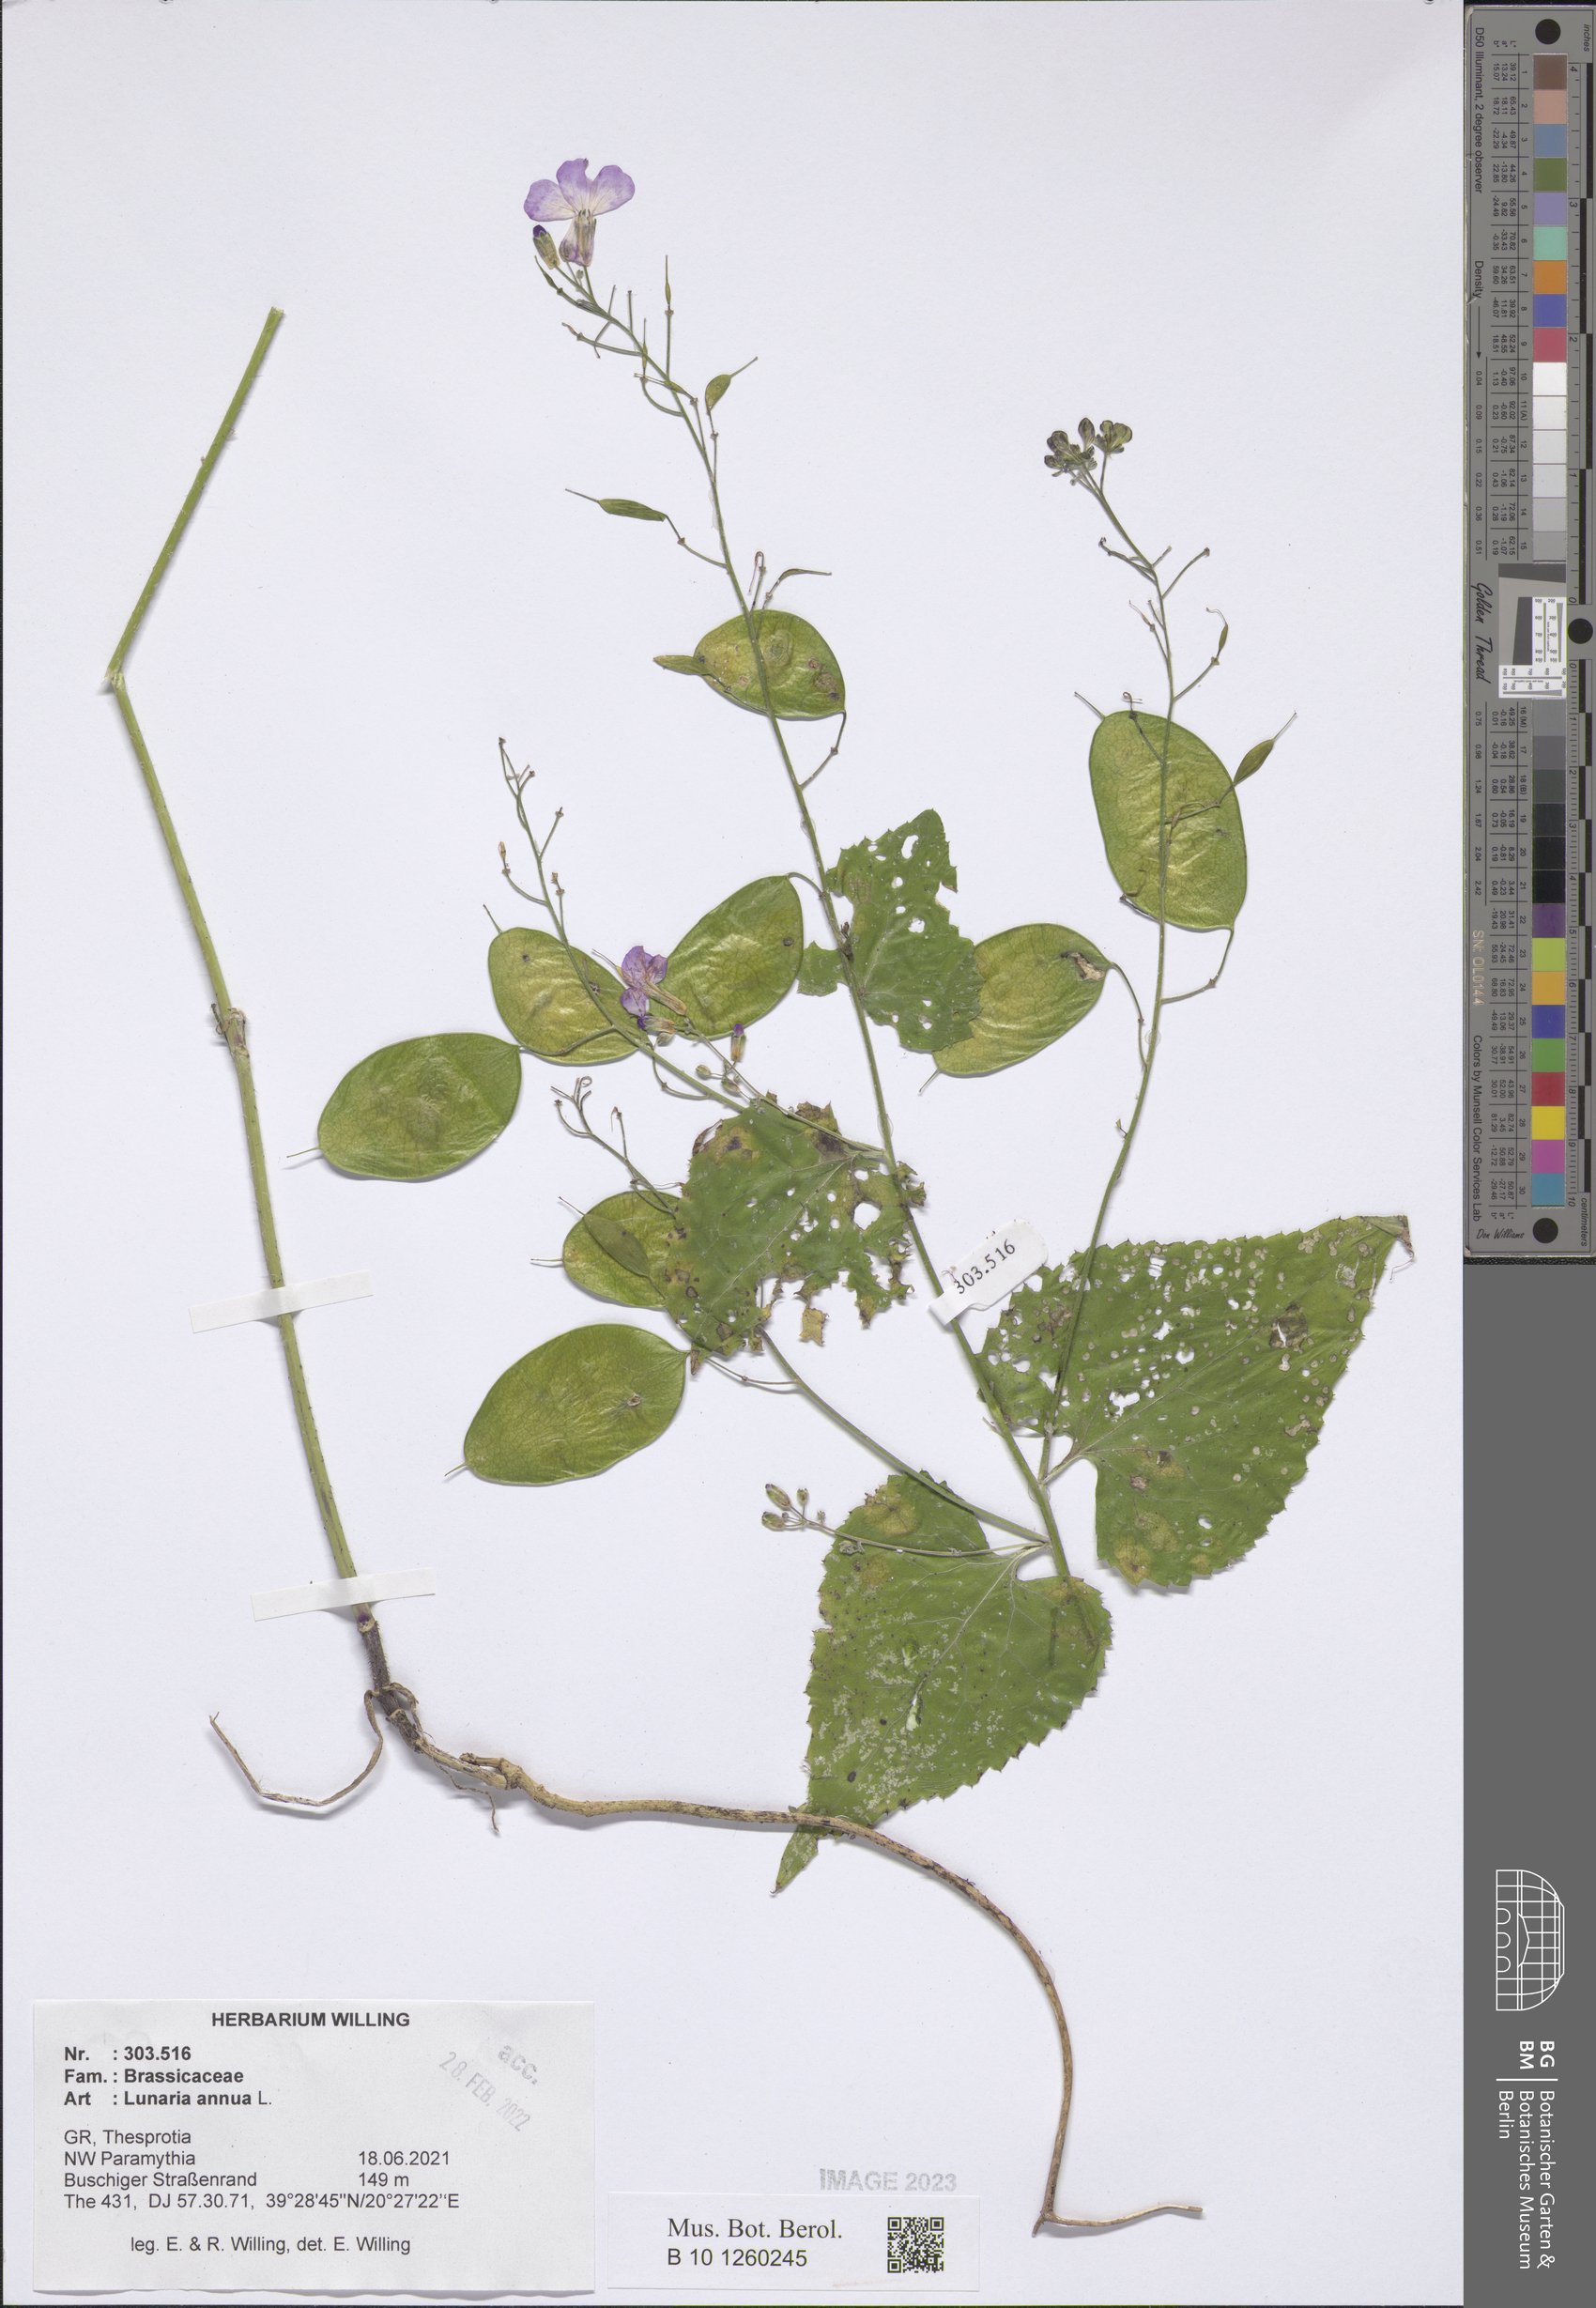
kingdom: Plantae
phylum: Tracheophyta
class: Magnoliopsida
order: Brassicales
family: Brassicaceae
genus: Lunaria
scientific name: Lunaria annua
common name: Honesty
